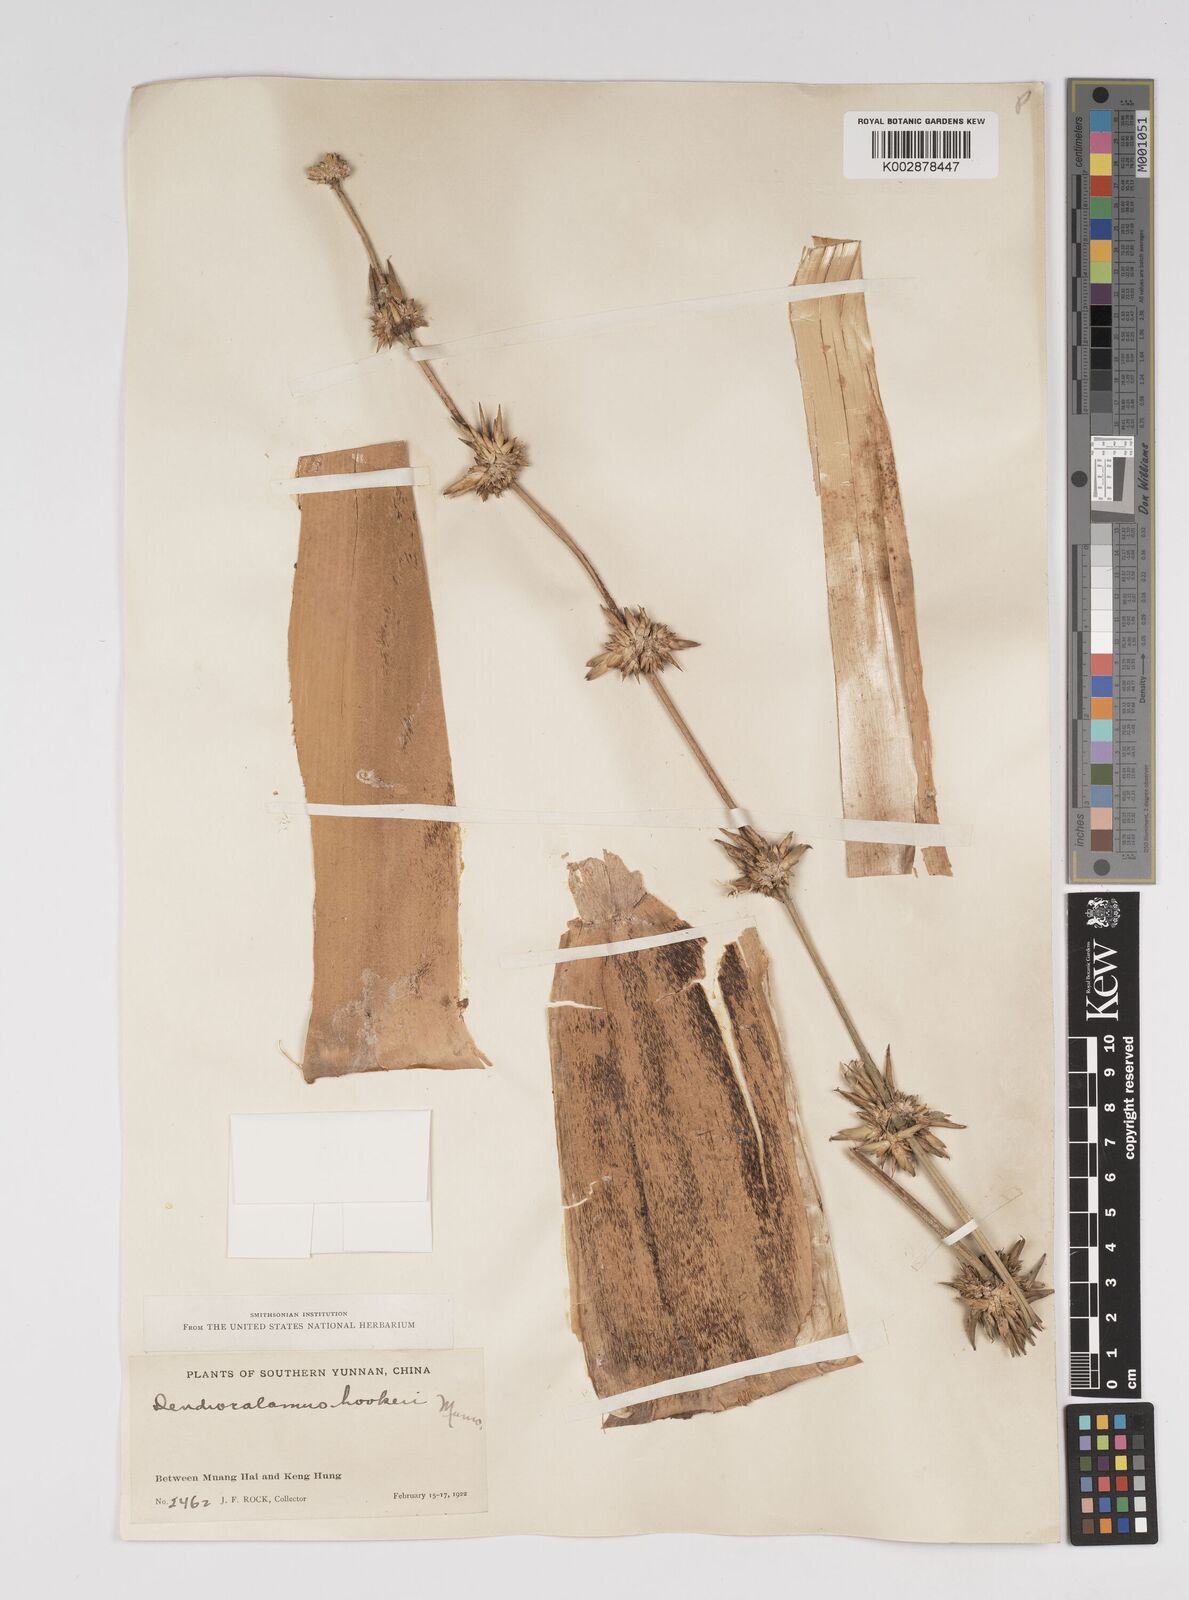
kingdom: Plantae
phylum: Tracheophyta
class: Liliopsida
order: Poales
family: Poaceae
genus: Dendrocalamus
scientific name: Dendrocalamus hookeri
